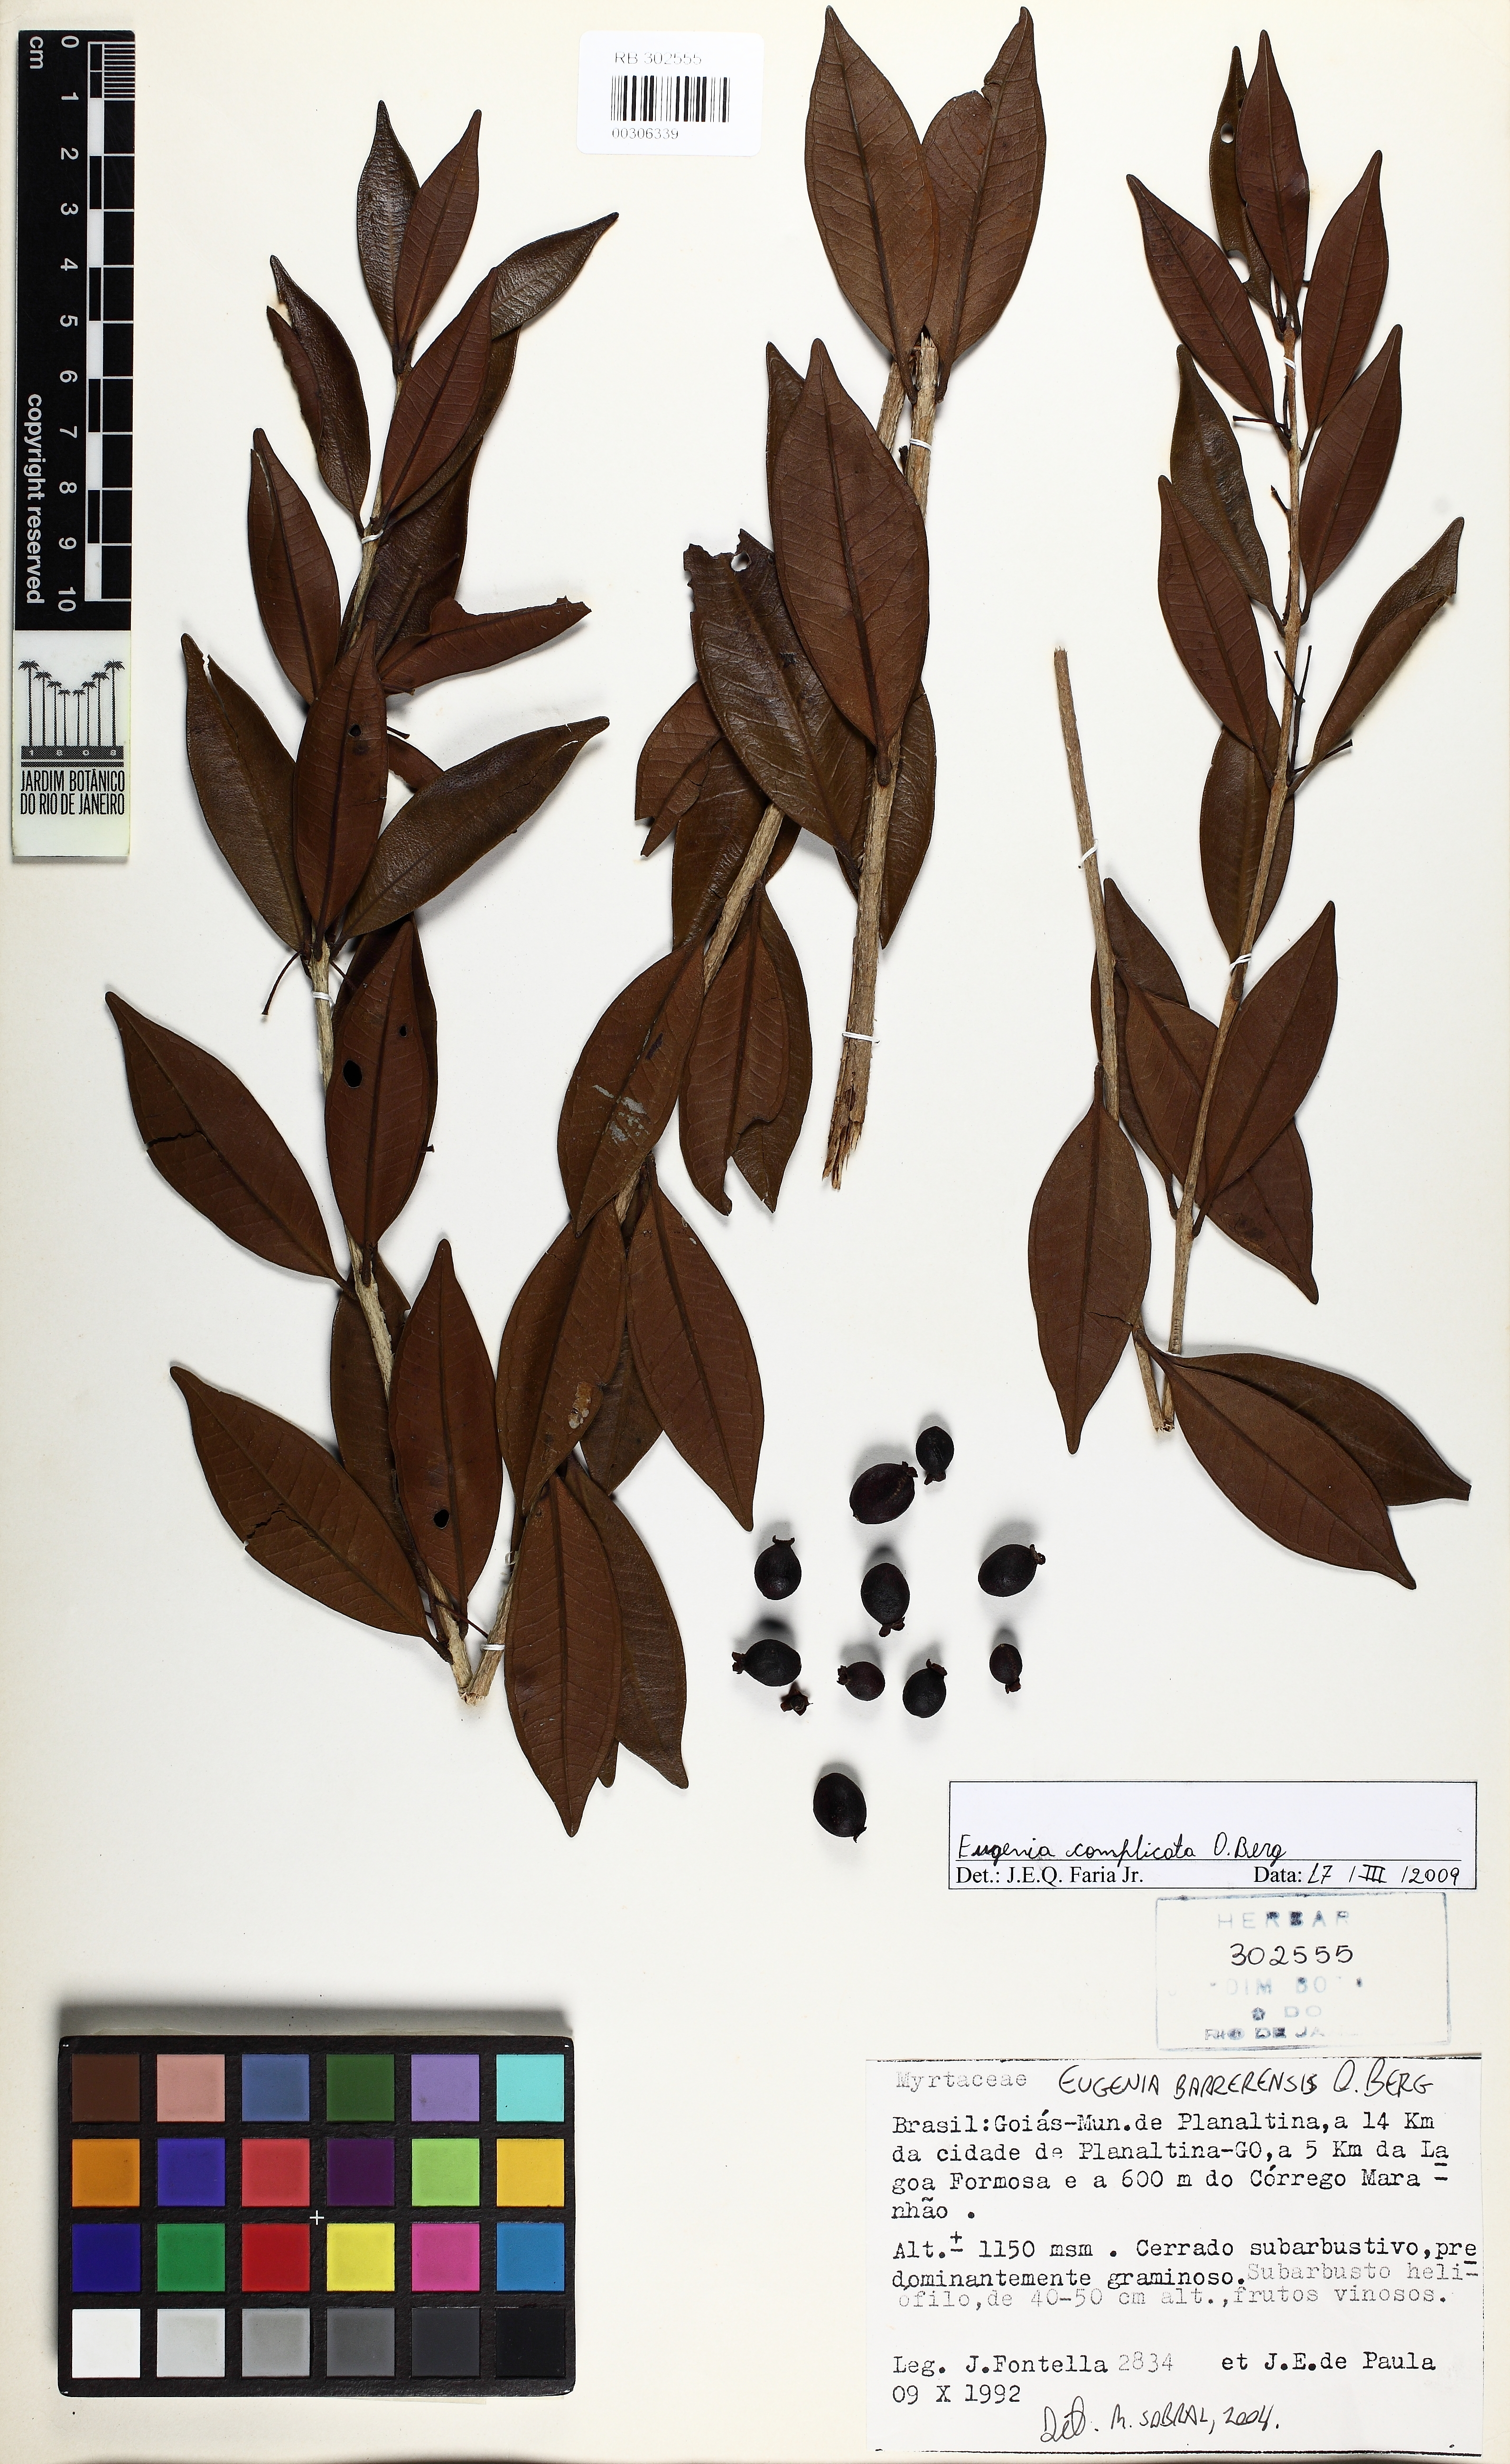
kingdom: Plantae
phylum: Tracheophyta
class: Magnoliopsida
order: Myrtales
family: Myrtaceae
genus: Eugenia
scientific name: Eugenia complicata
